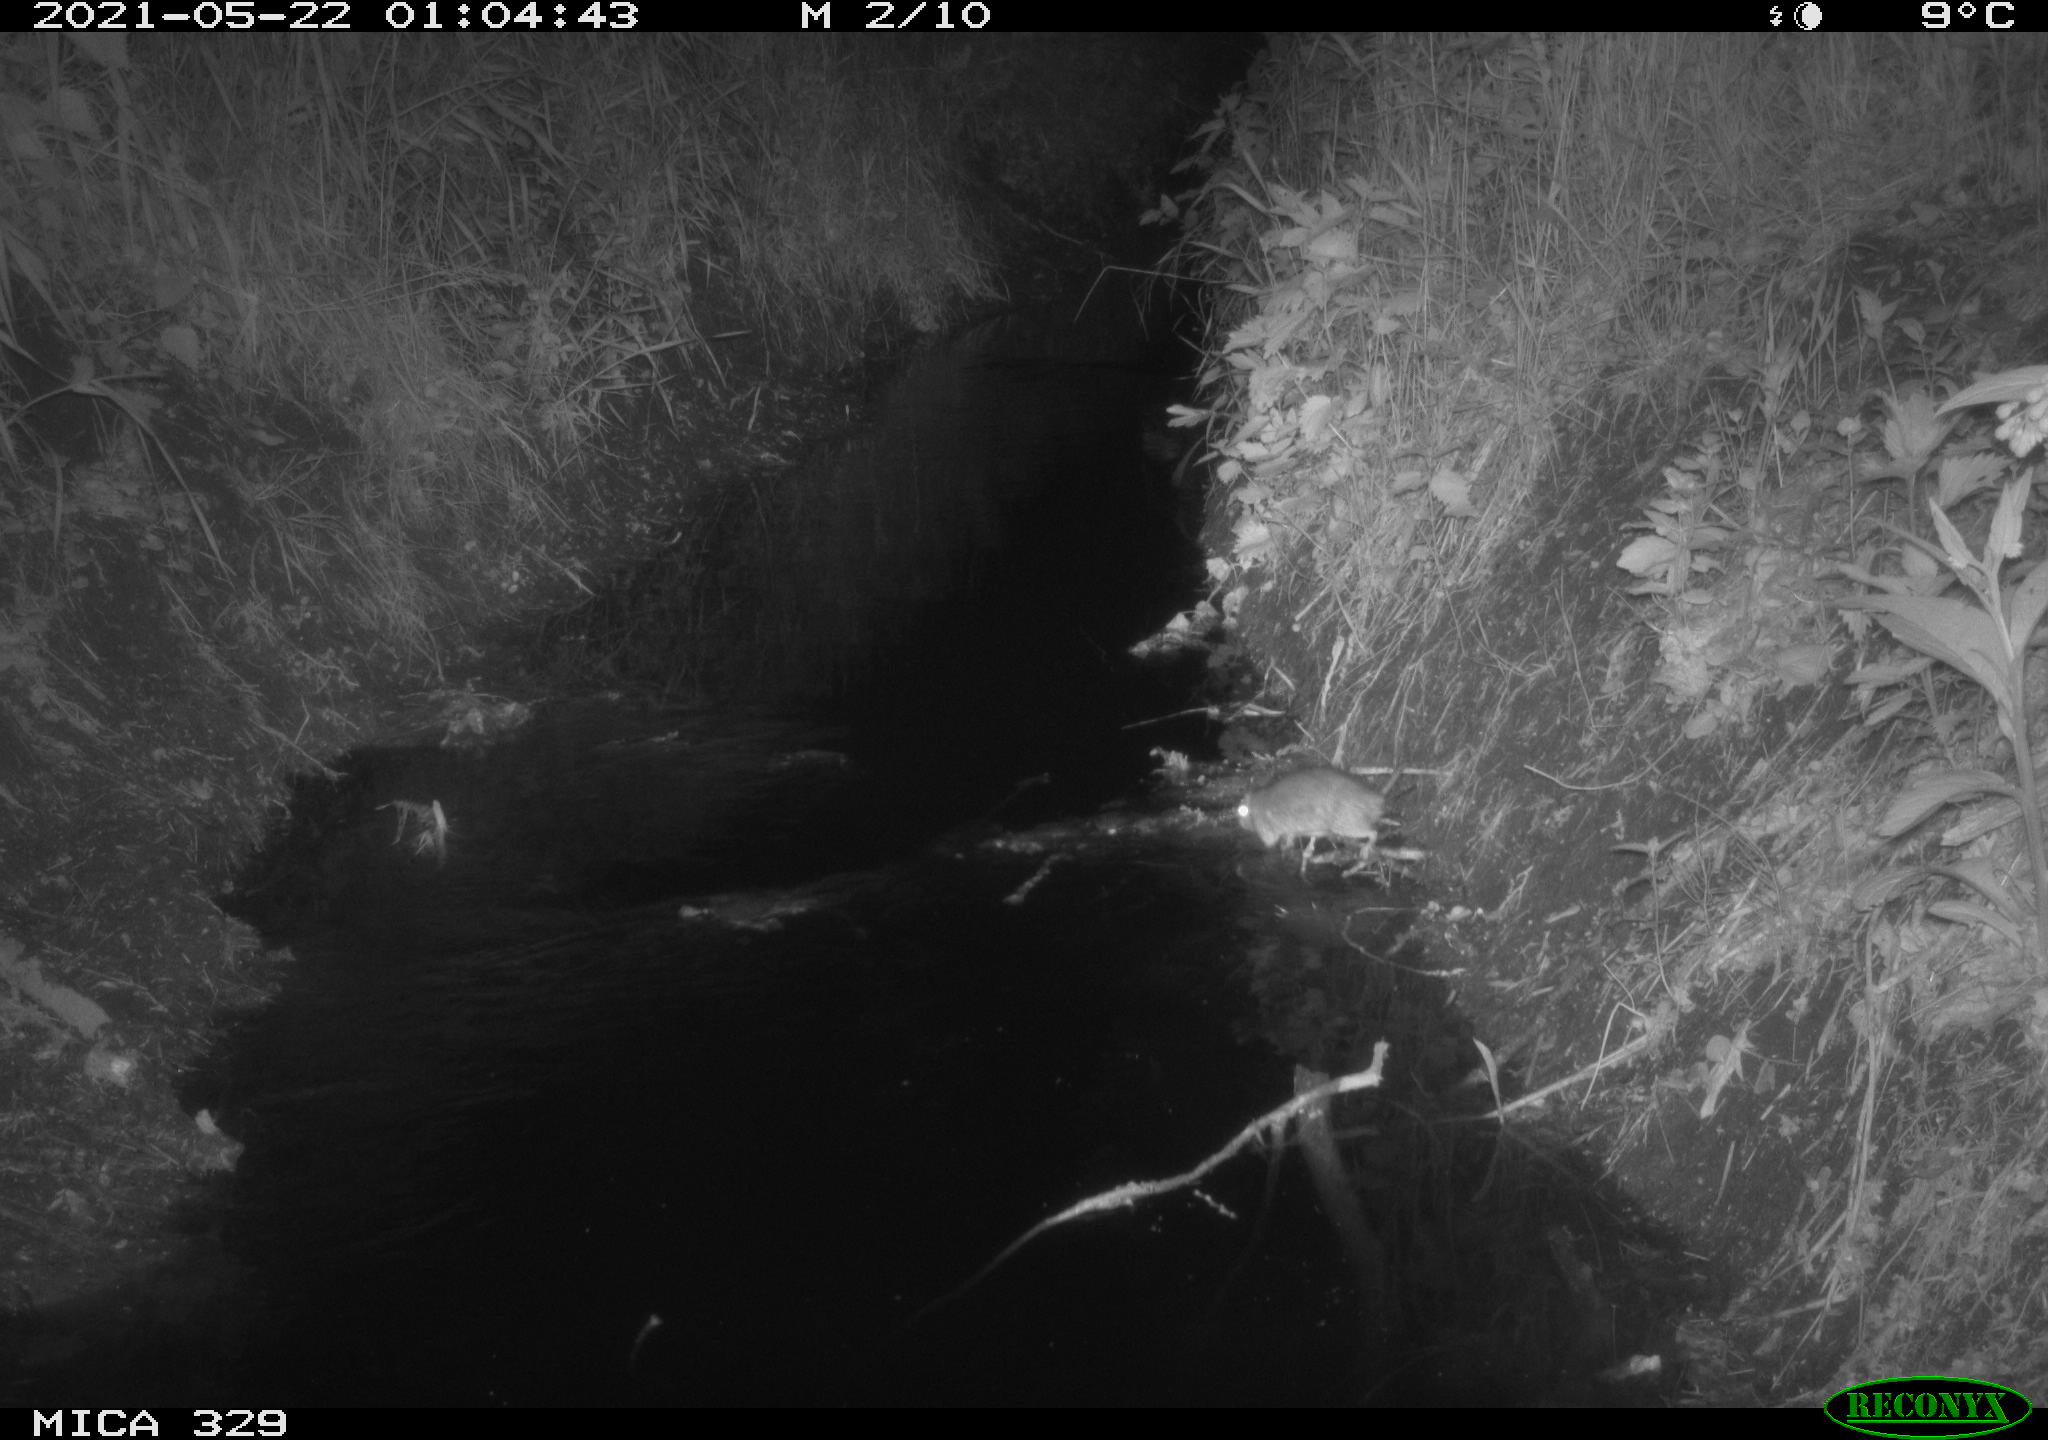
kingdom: Animalia
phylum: Chordata
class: Mammalia
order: Rodentia
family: Muridae
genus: Rattus
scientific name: Rattus norvegicus
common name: Brown rat
